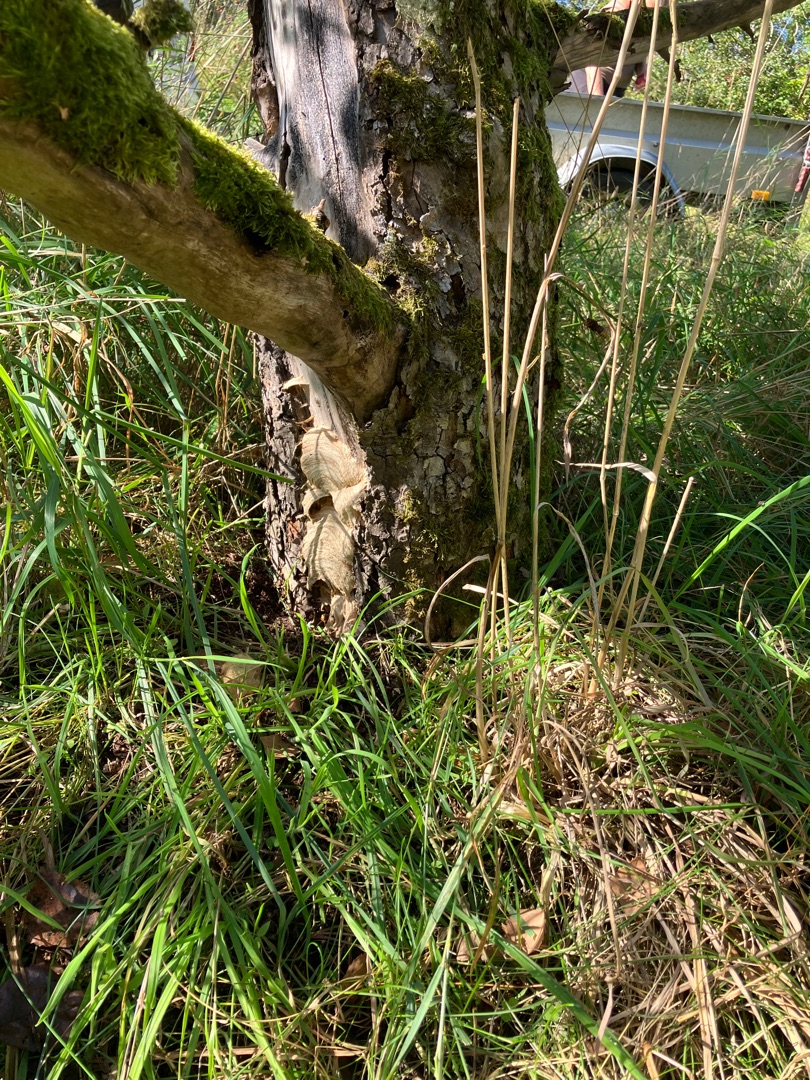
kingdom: Animalia
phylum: Arthropoda
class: Insecta
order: Hymenoptera
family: Vespidae
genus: Vespa
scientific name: Vespa crabro
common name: Stor gedehams
